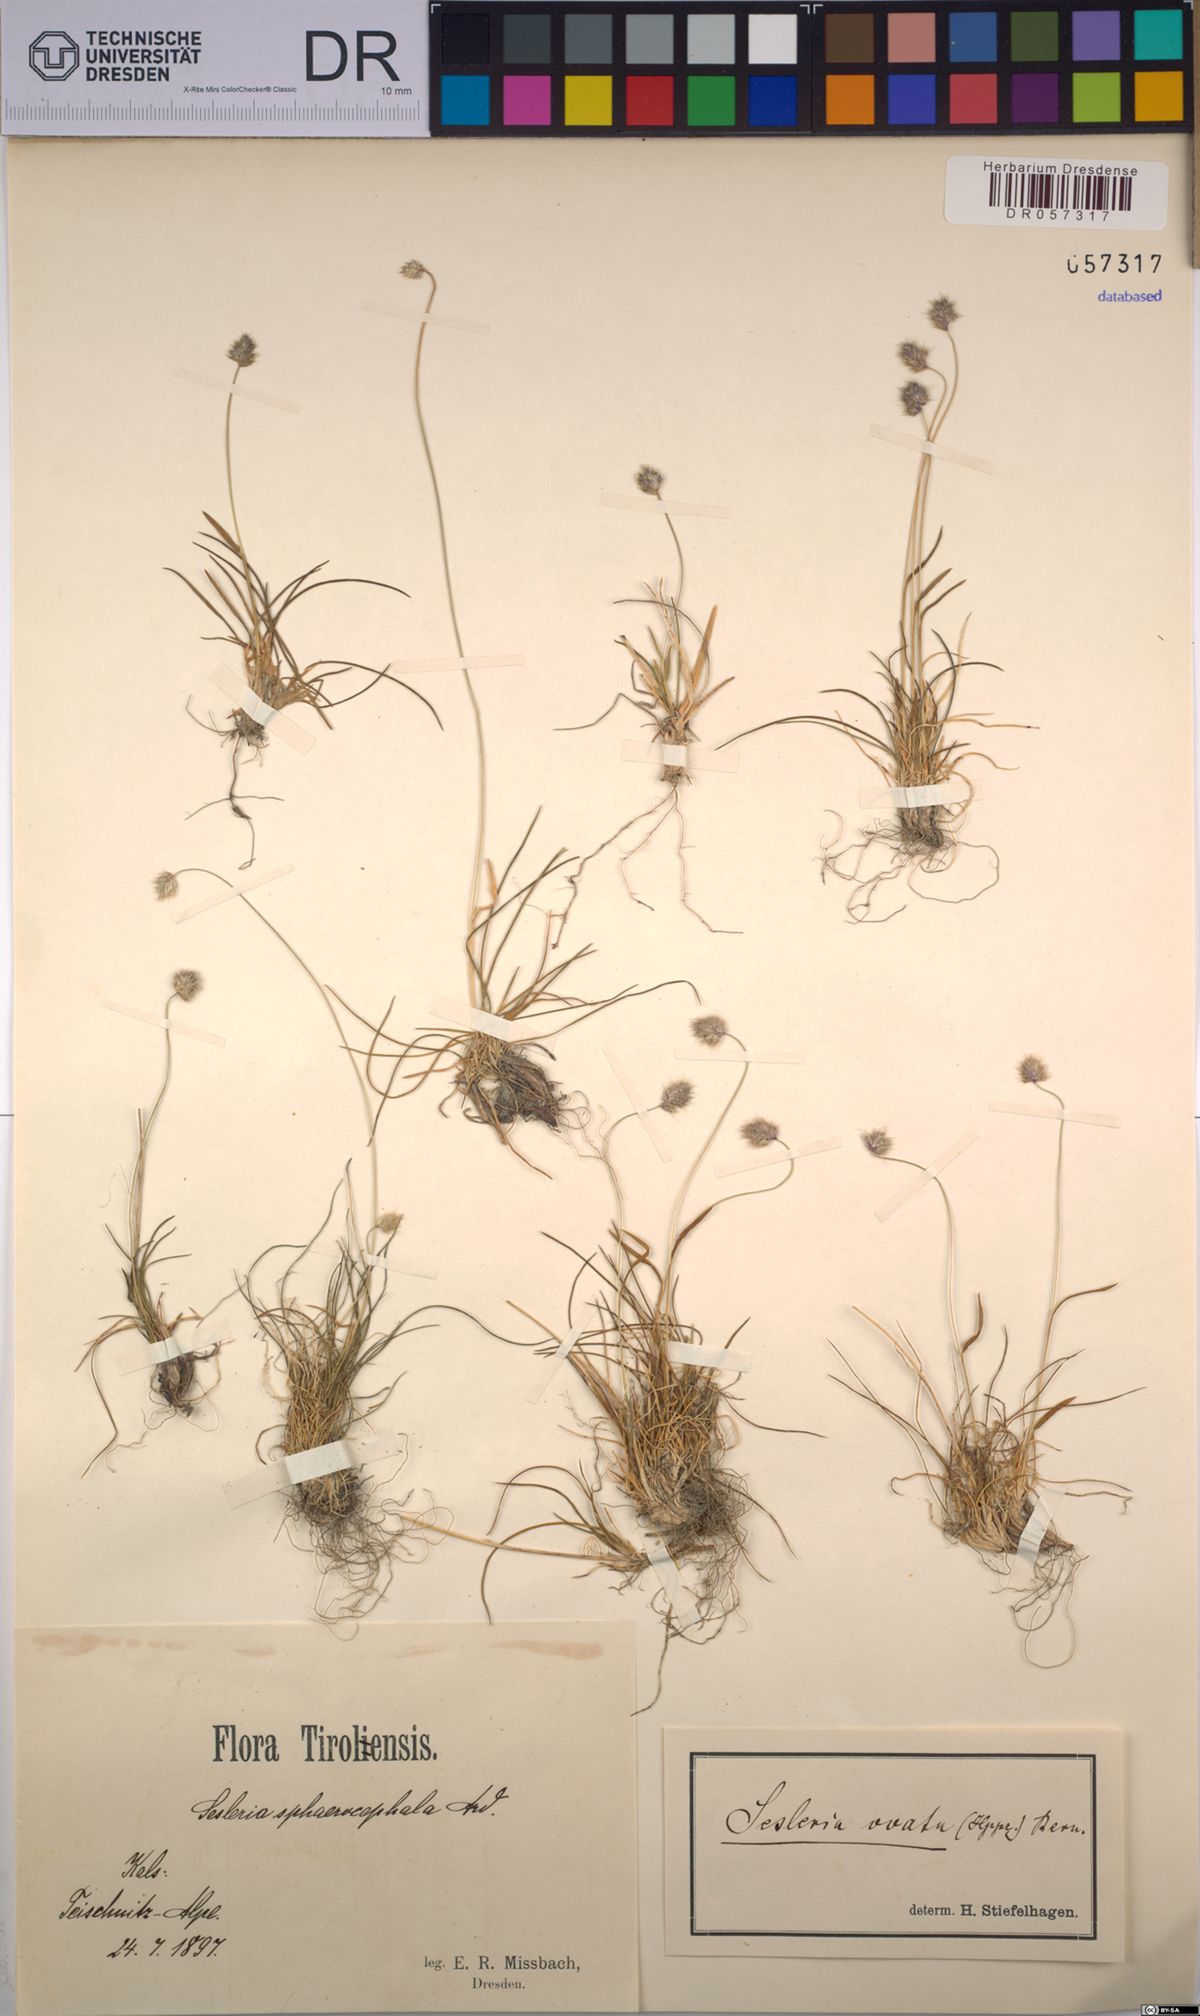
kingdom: Plantae
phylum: Tracheophyta
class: Liliopsida
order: Poales
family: Poaceae
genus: Psilathera
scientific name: Psilathera ovata
